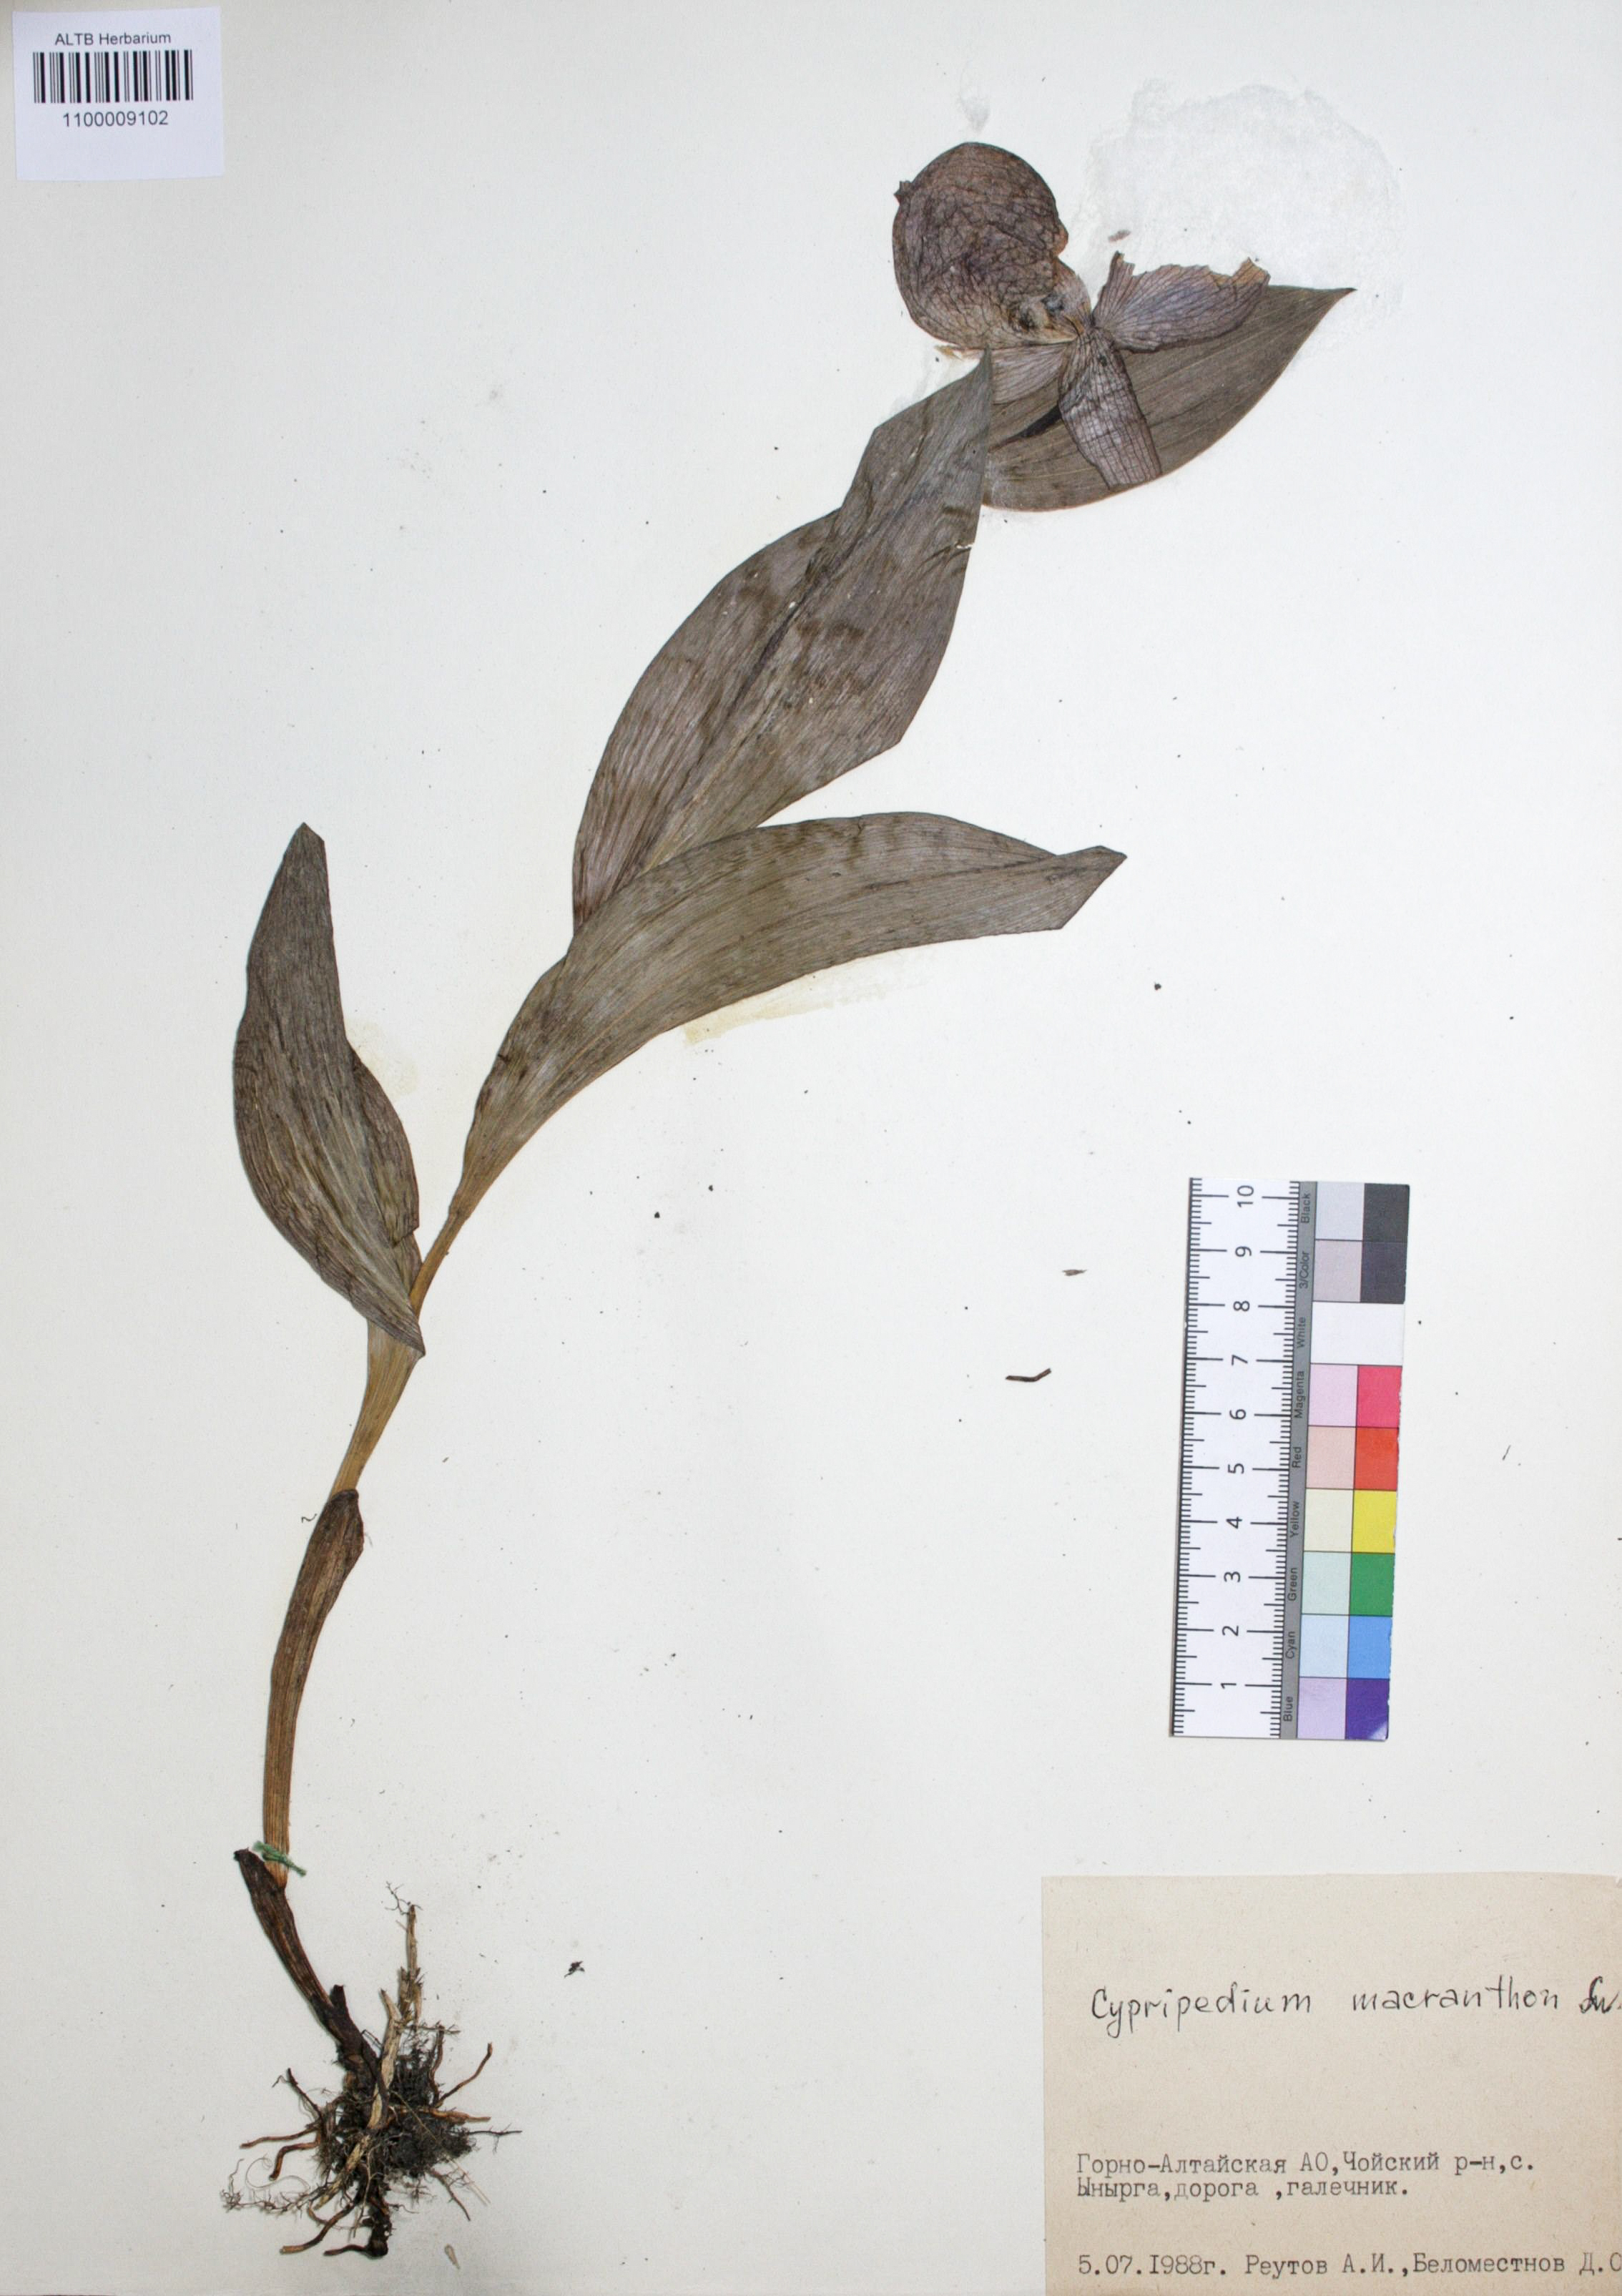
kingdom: Plantae
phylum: Tracheophyta
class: Liliopsida
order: Asparagales
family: Orchidaceae
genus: Cypripedium
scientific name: Cypripedium macranthon
